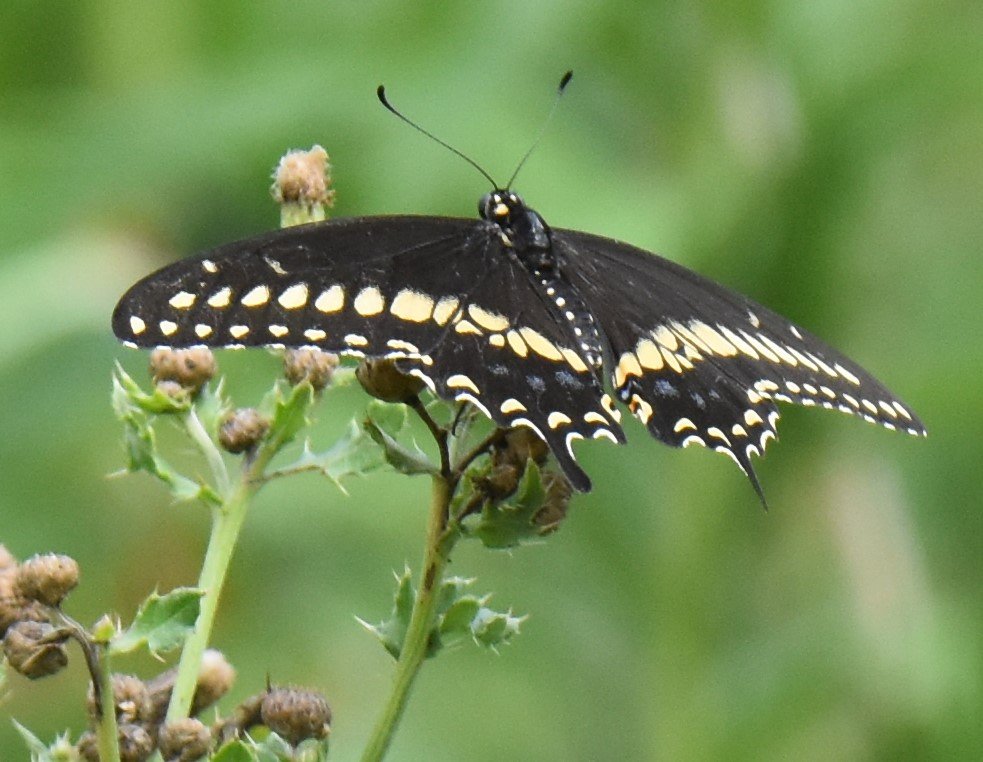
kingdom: Animalia
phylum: Arthropoda
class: Insecta
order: Lepidoptera
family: Papilionidae
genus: Papilio
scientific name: Papilio polyxenes
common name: Black Swallowtail
